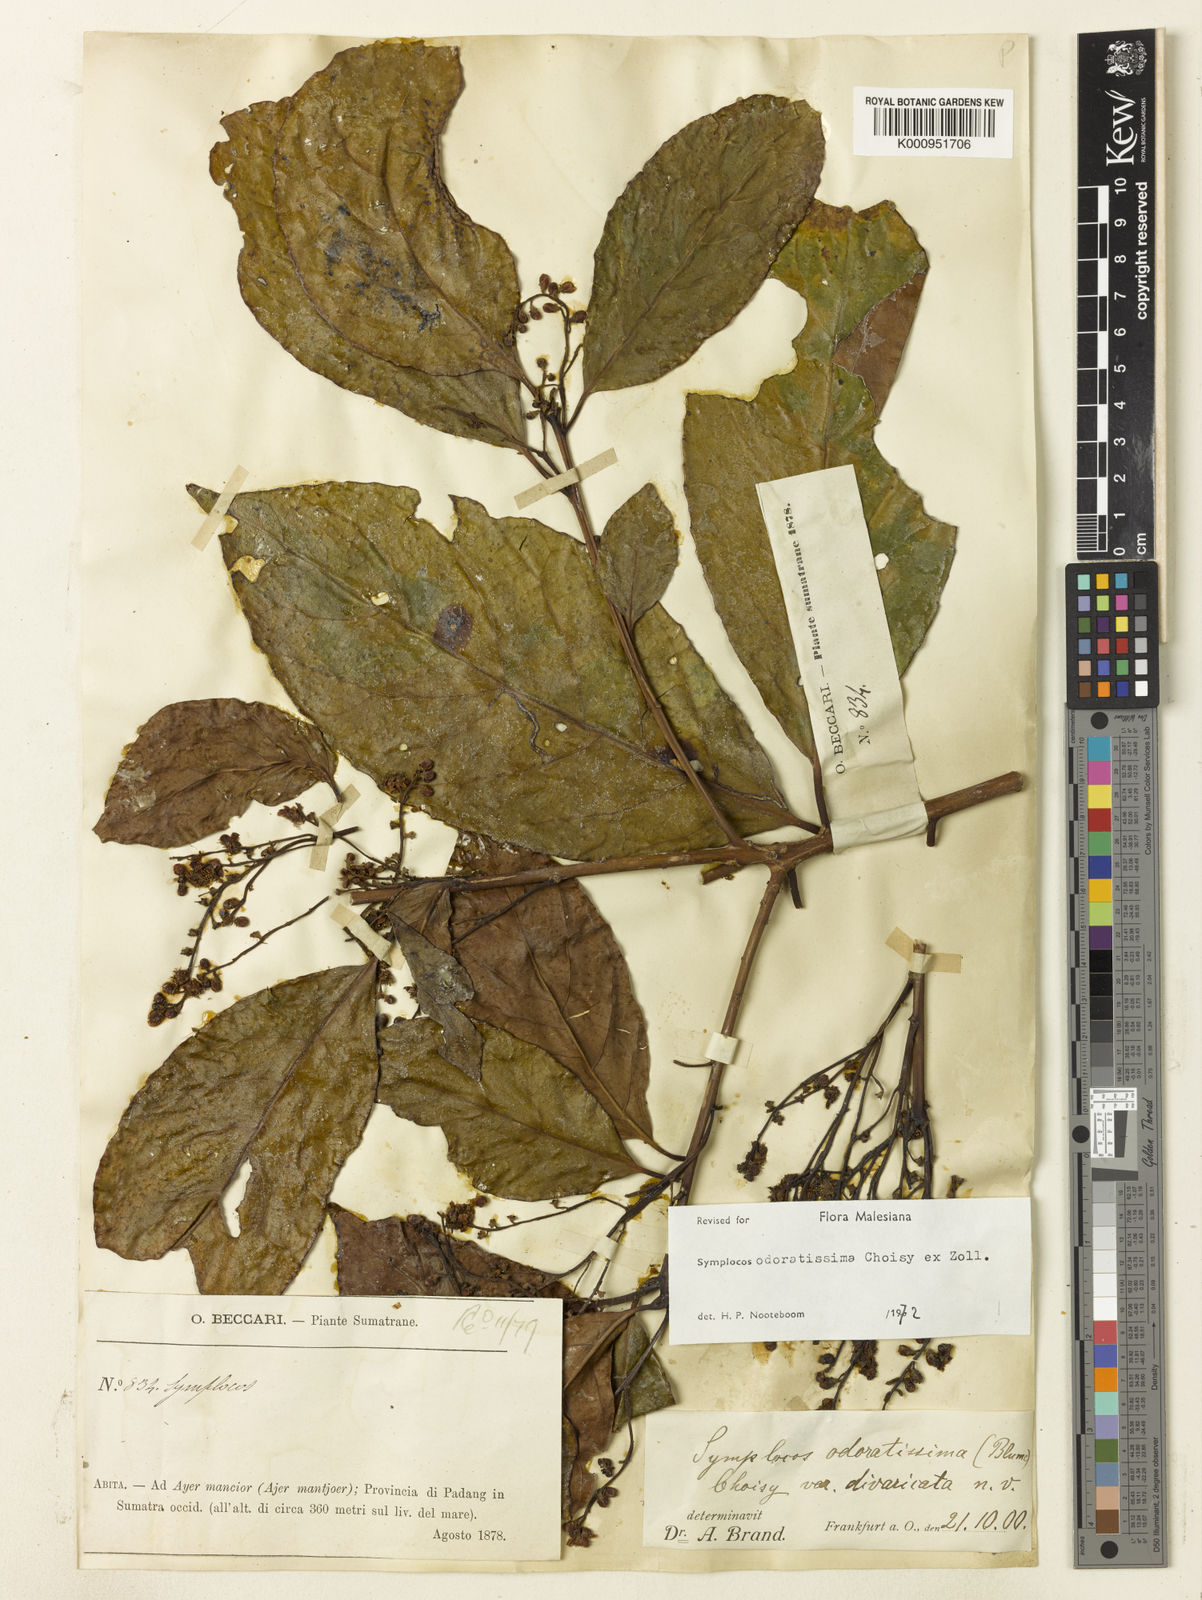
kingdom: Plantae
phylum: Tracheophyta
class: Magnoliopsida
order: Ericales
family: Symplocaceae
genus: Symplocos
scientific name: Symplocos odoratissima
